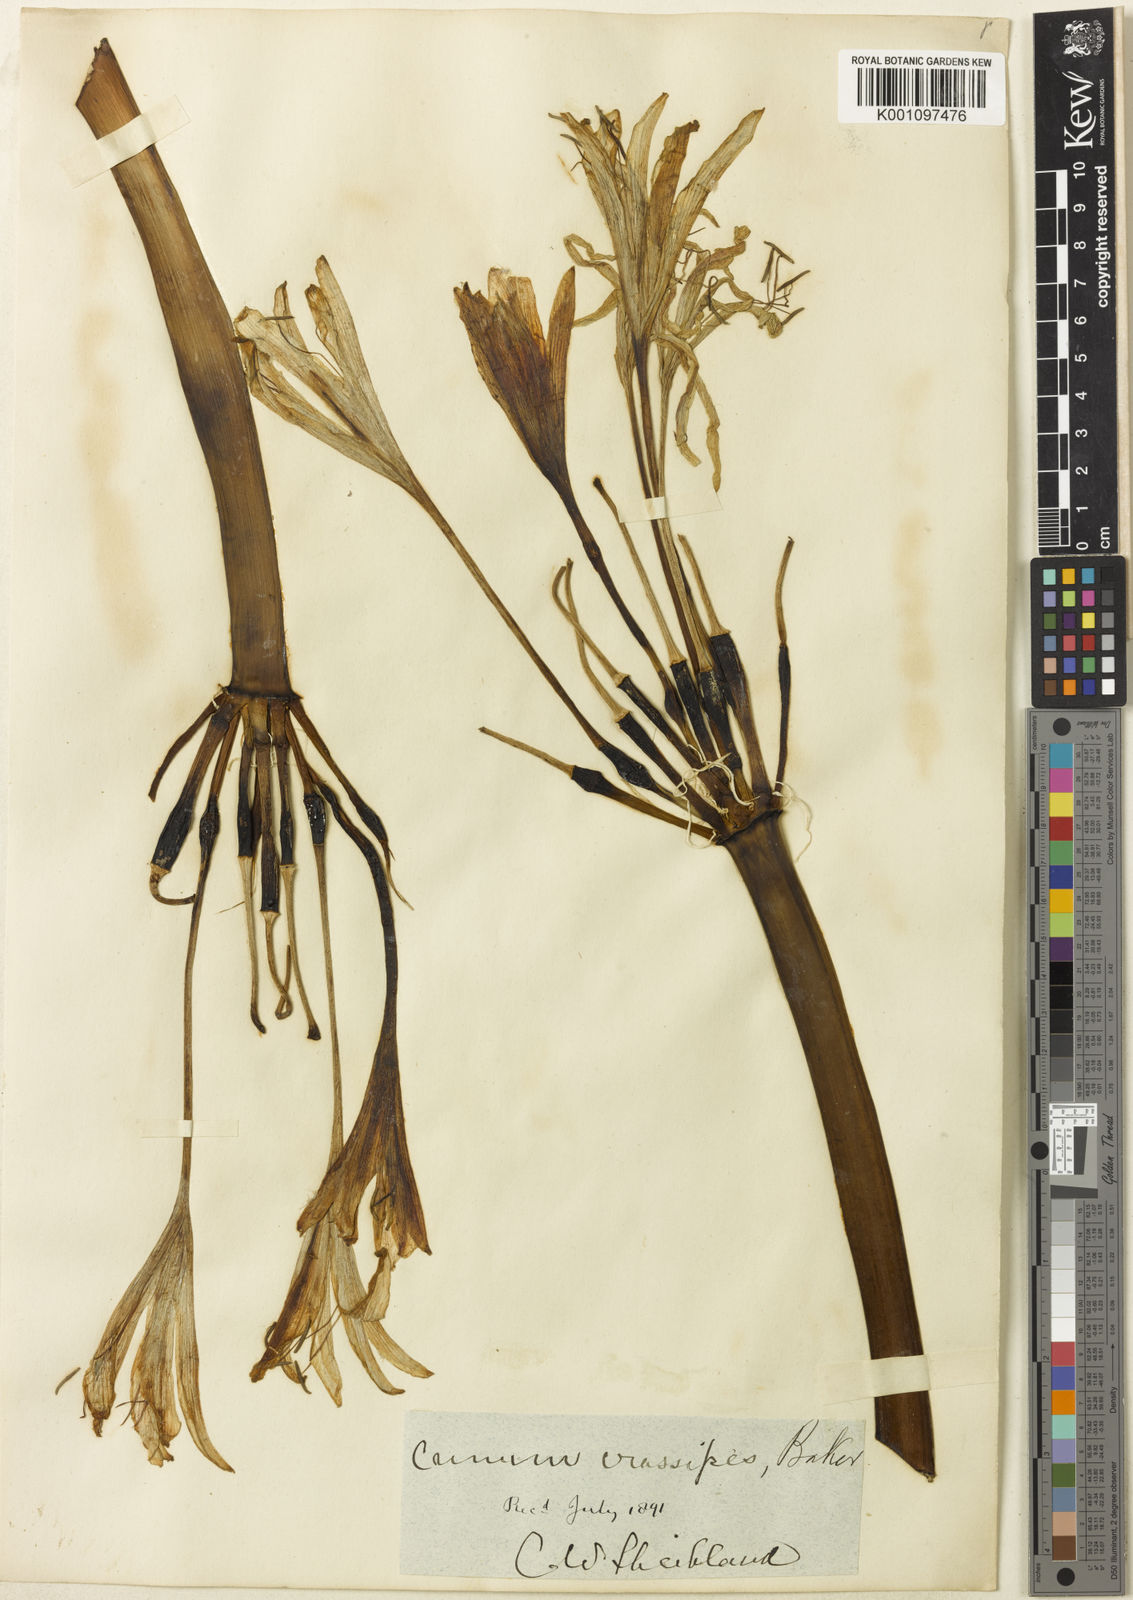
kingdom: Plantae
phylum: Tracheophyta
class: Liliopsida
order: Asparagales
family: Amaryllidaceae
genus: Crinum
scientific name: Crinum variabile
